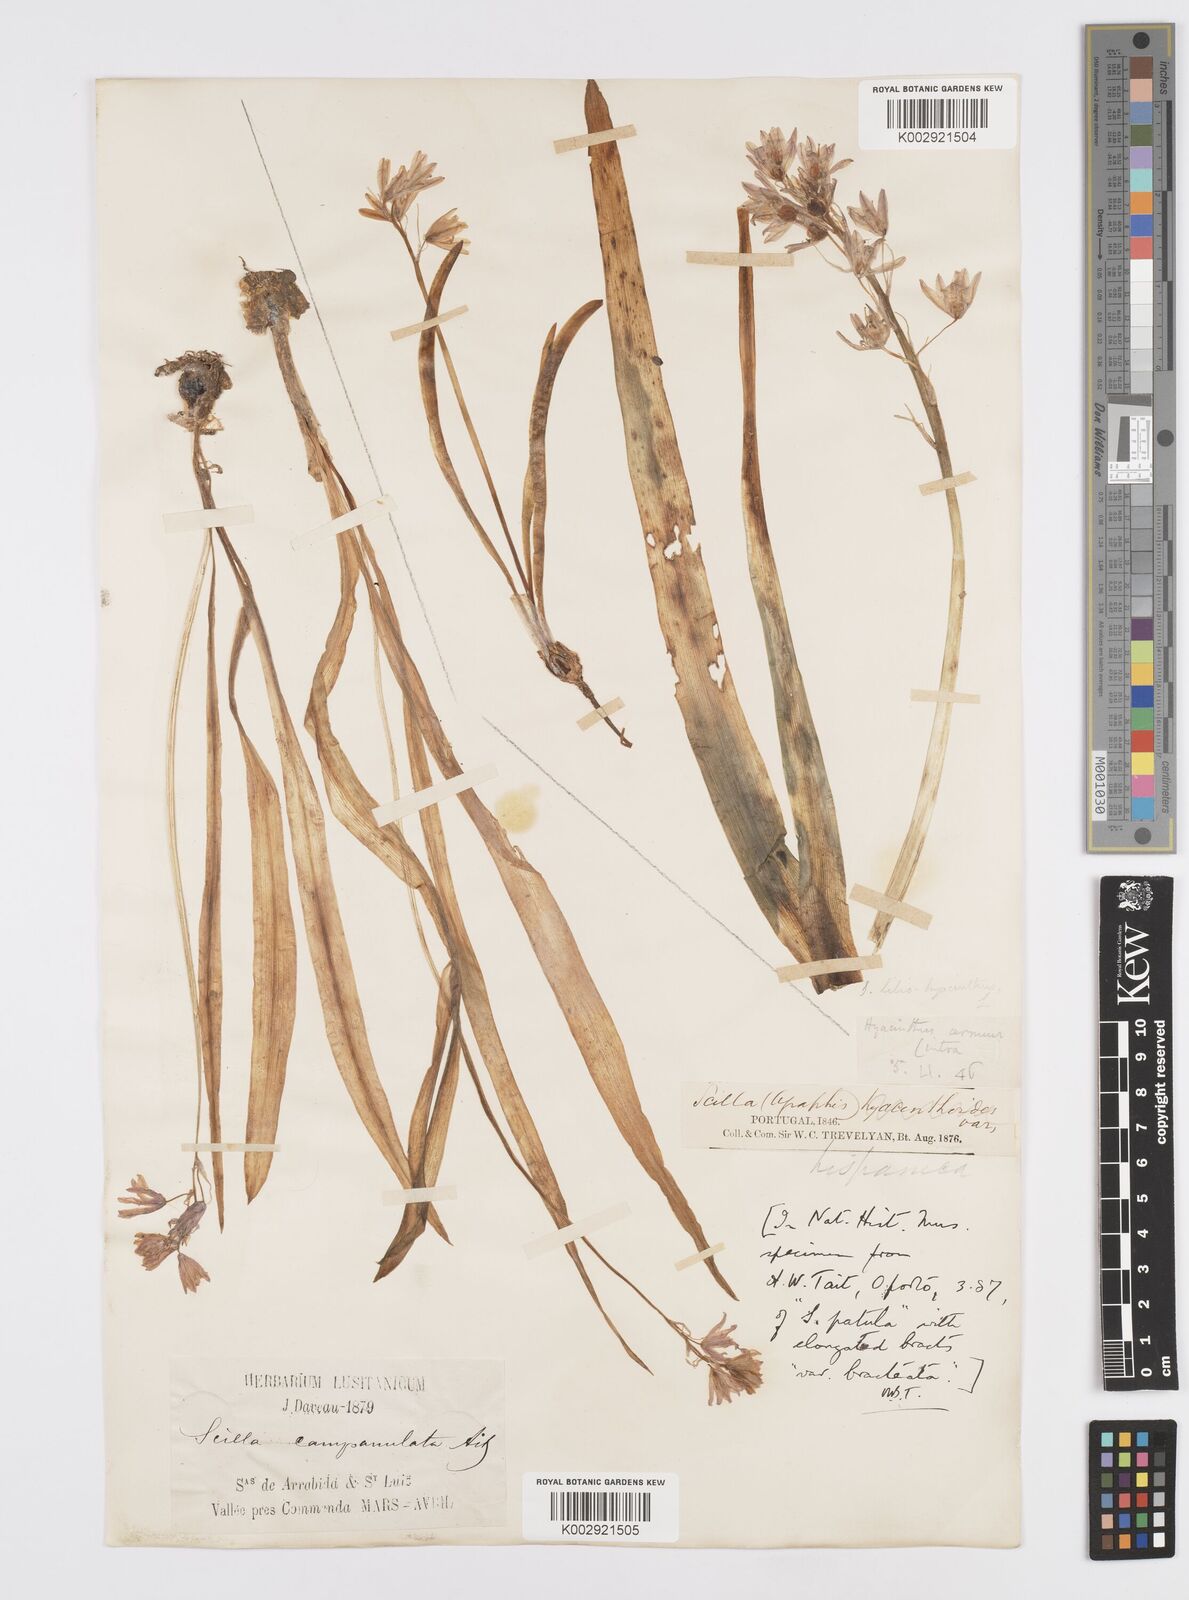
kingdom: Plantae
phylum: Tracheophyta
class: Liliopsida
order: Asparagales
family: Asparagaceae
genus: Hyacinthoides
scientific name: Hyacinthoides hispanica
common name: Spanish bluebell
